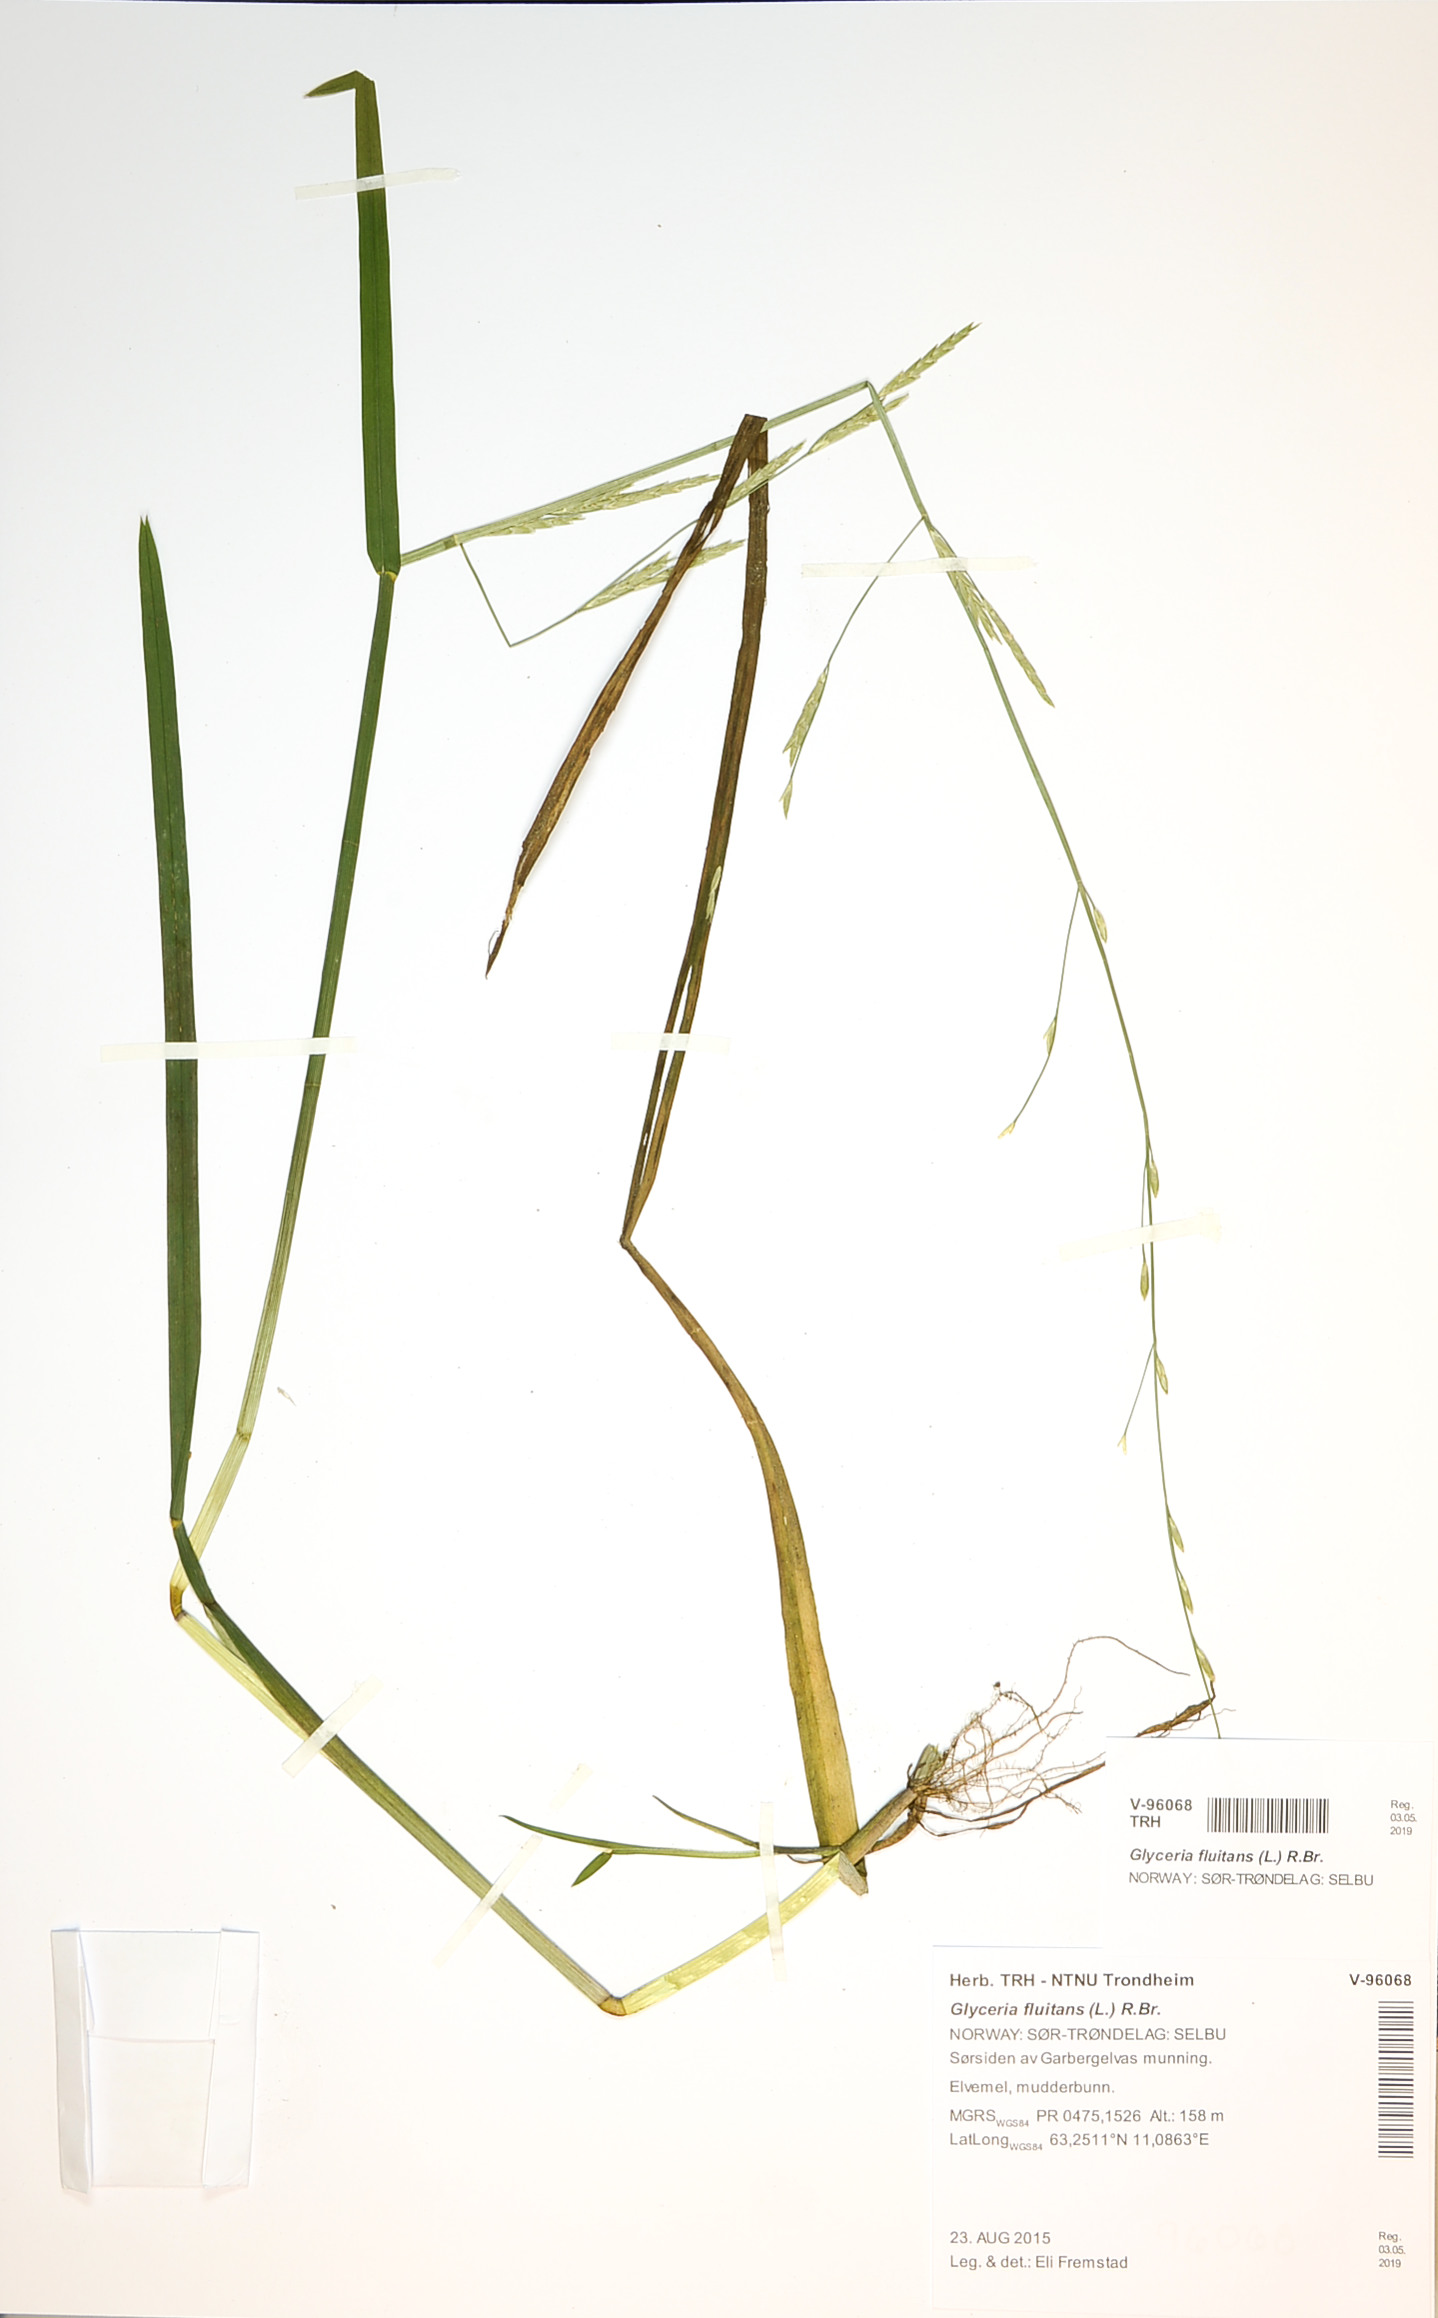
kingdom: Plantae
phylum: Tracheophyta
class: Liliopsida
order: Poales
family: Poaceae
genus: Glyceria
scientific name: Glyceria fluitans
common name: Floating sweet-grass
